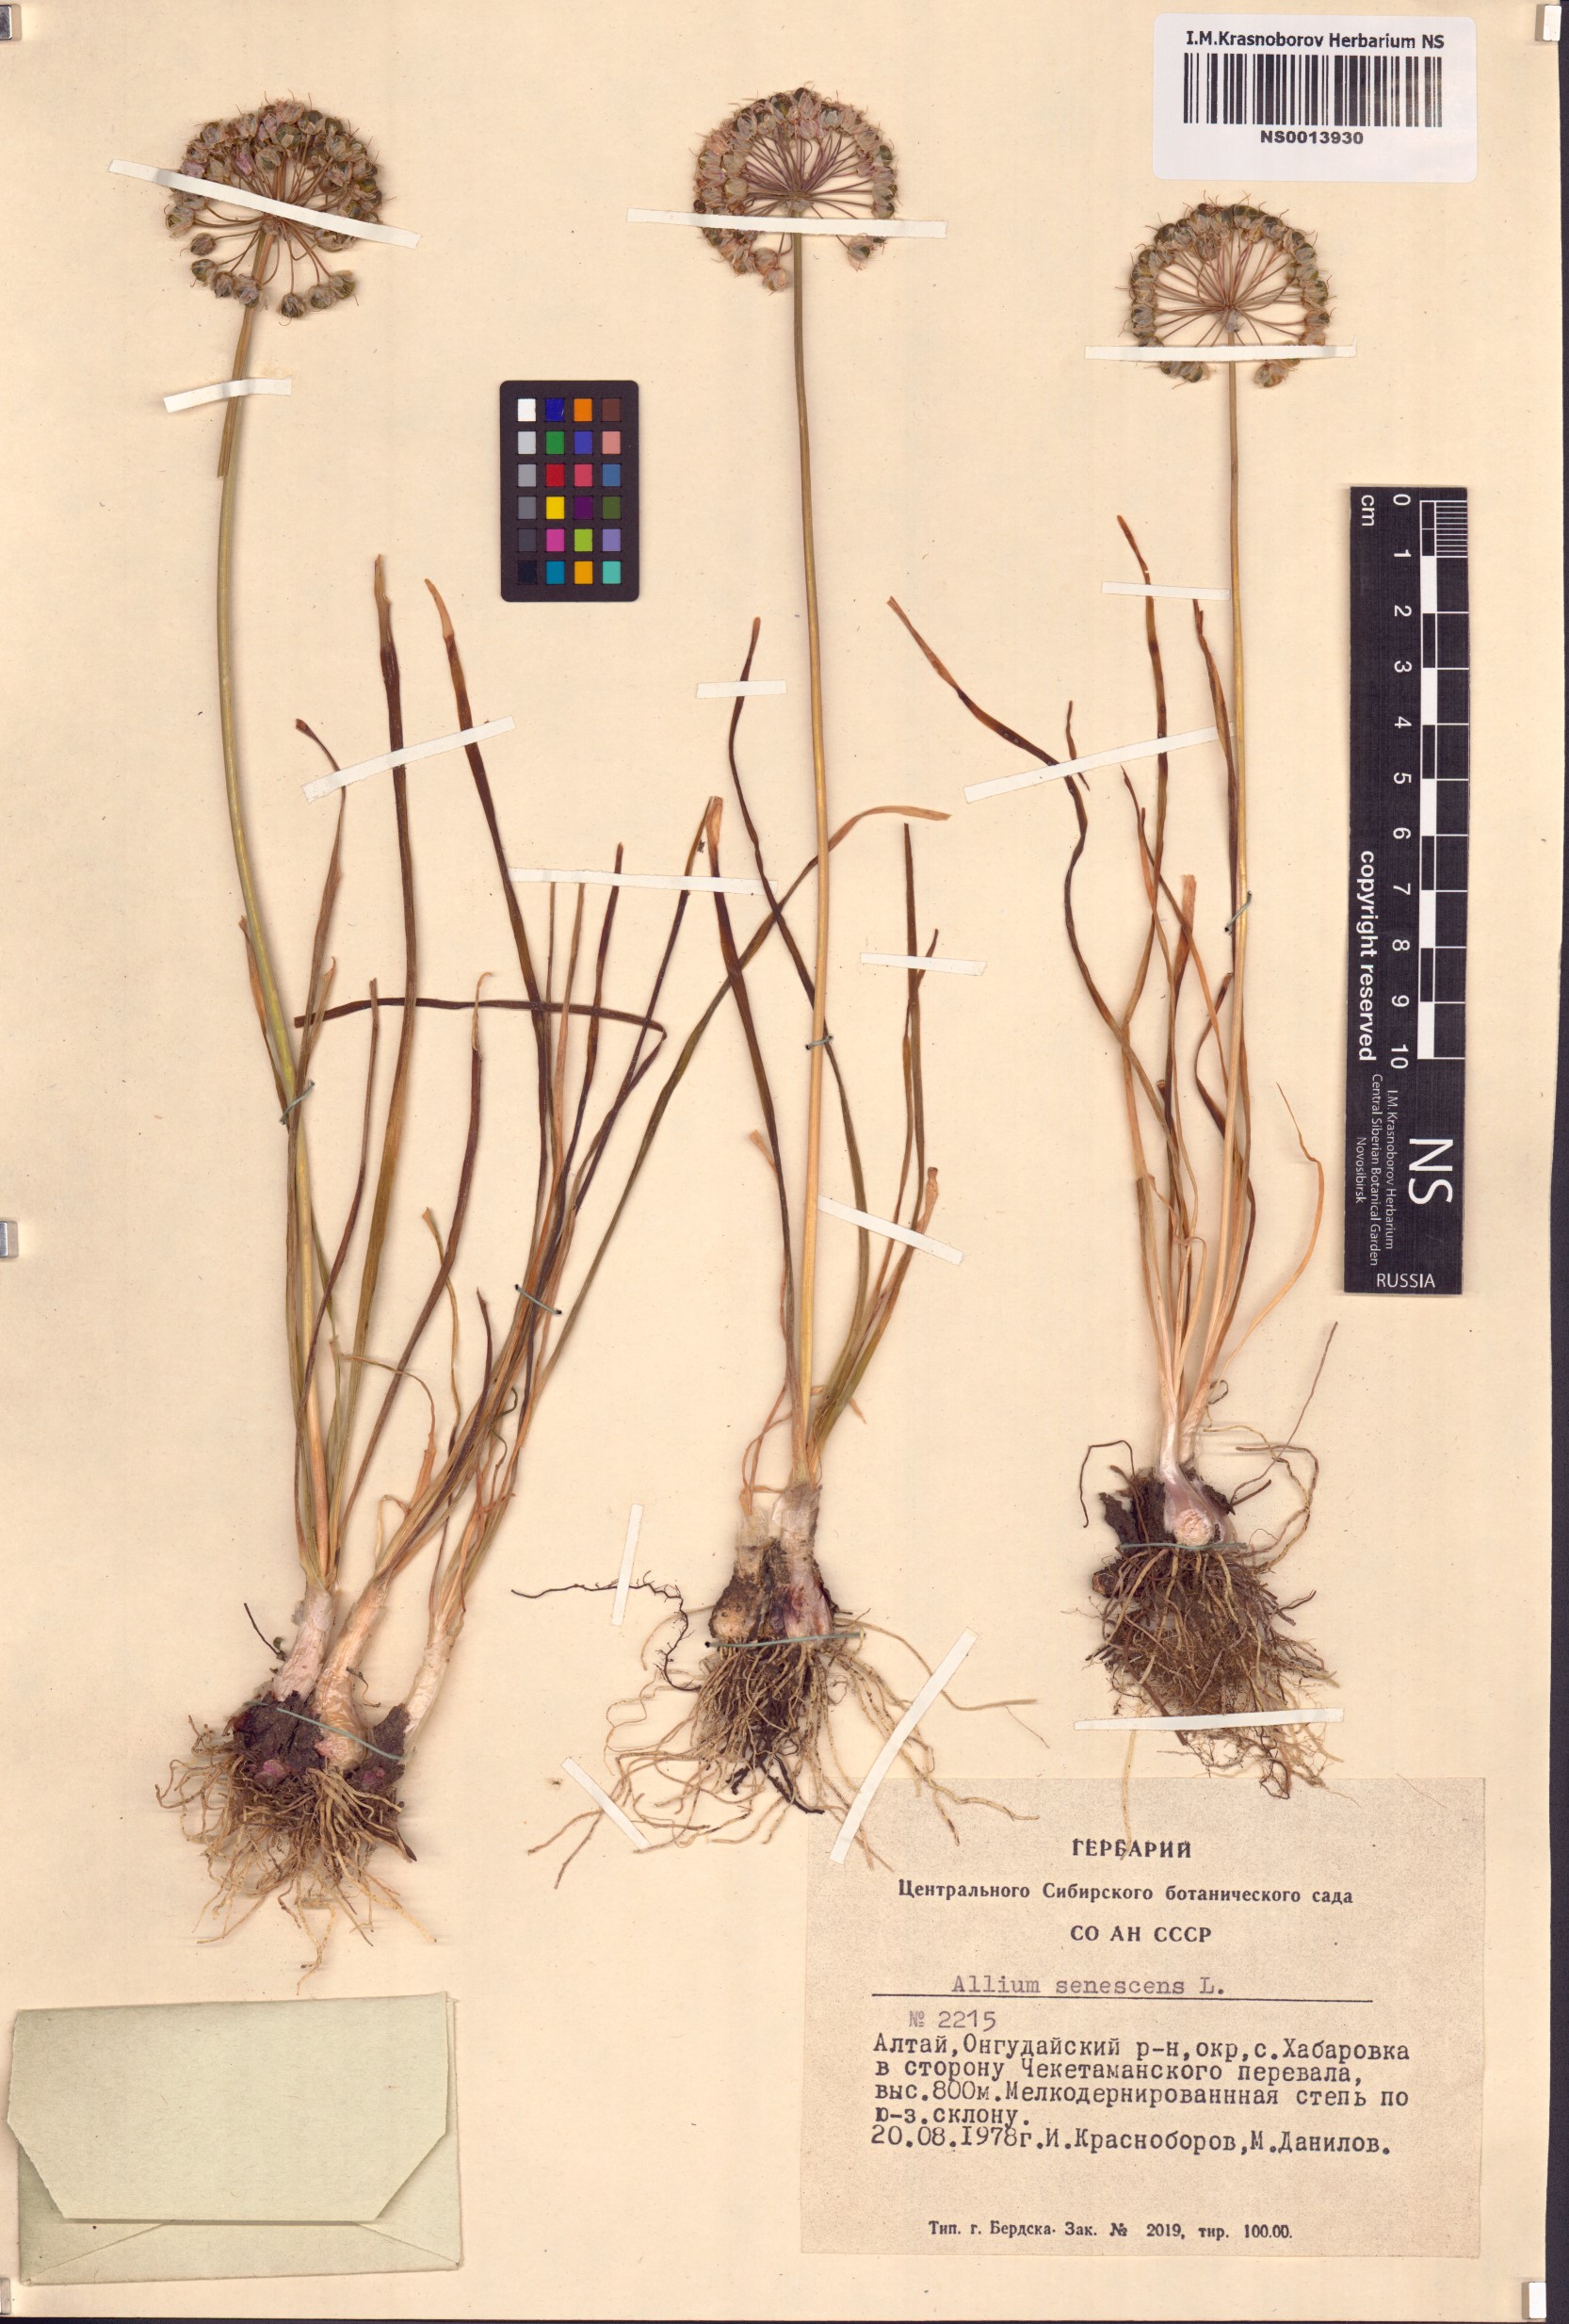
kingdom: Plantae
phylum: Tracheophyta
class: Liliopsida
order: Asparagales
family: Amaryllidaceae
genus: Allium
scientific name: Allium senescens
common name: German garlic
